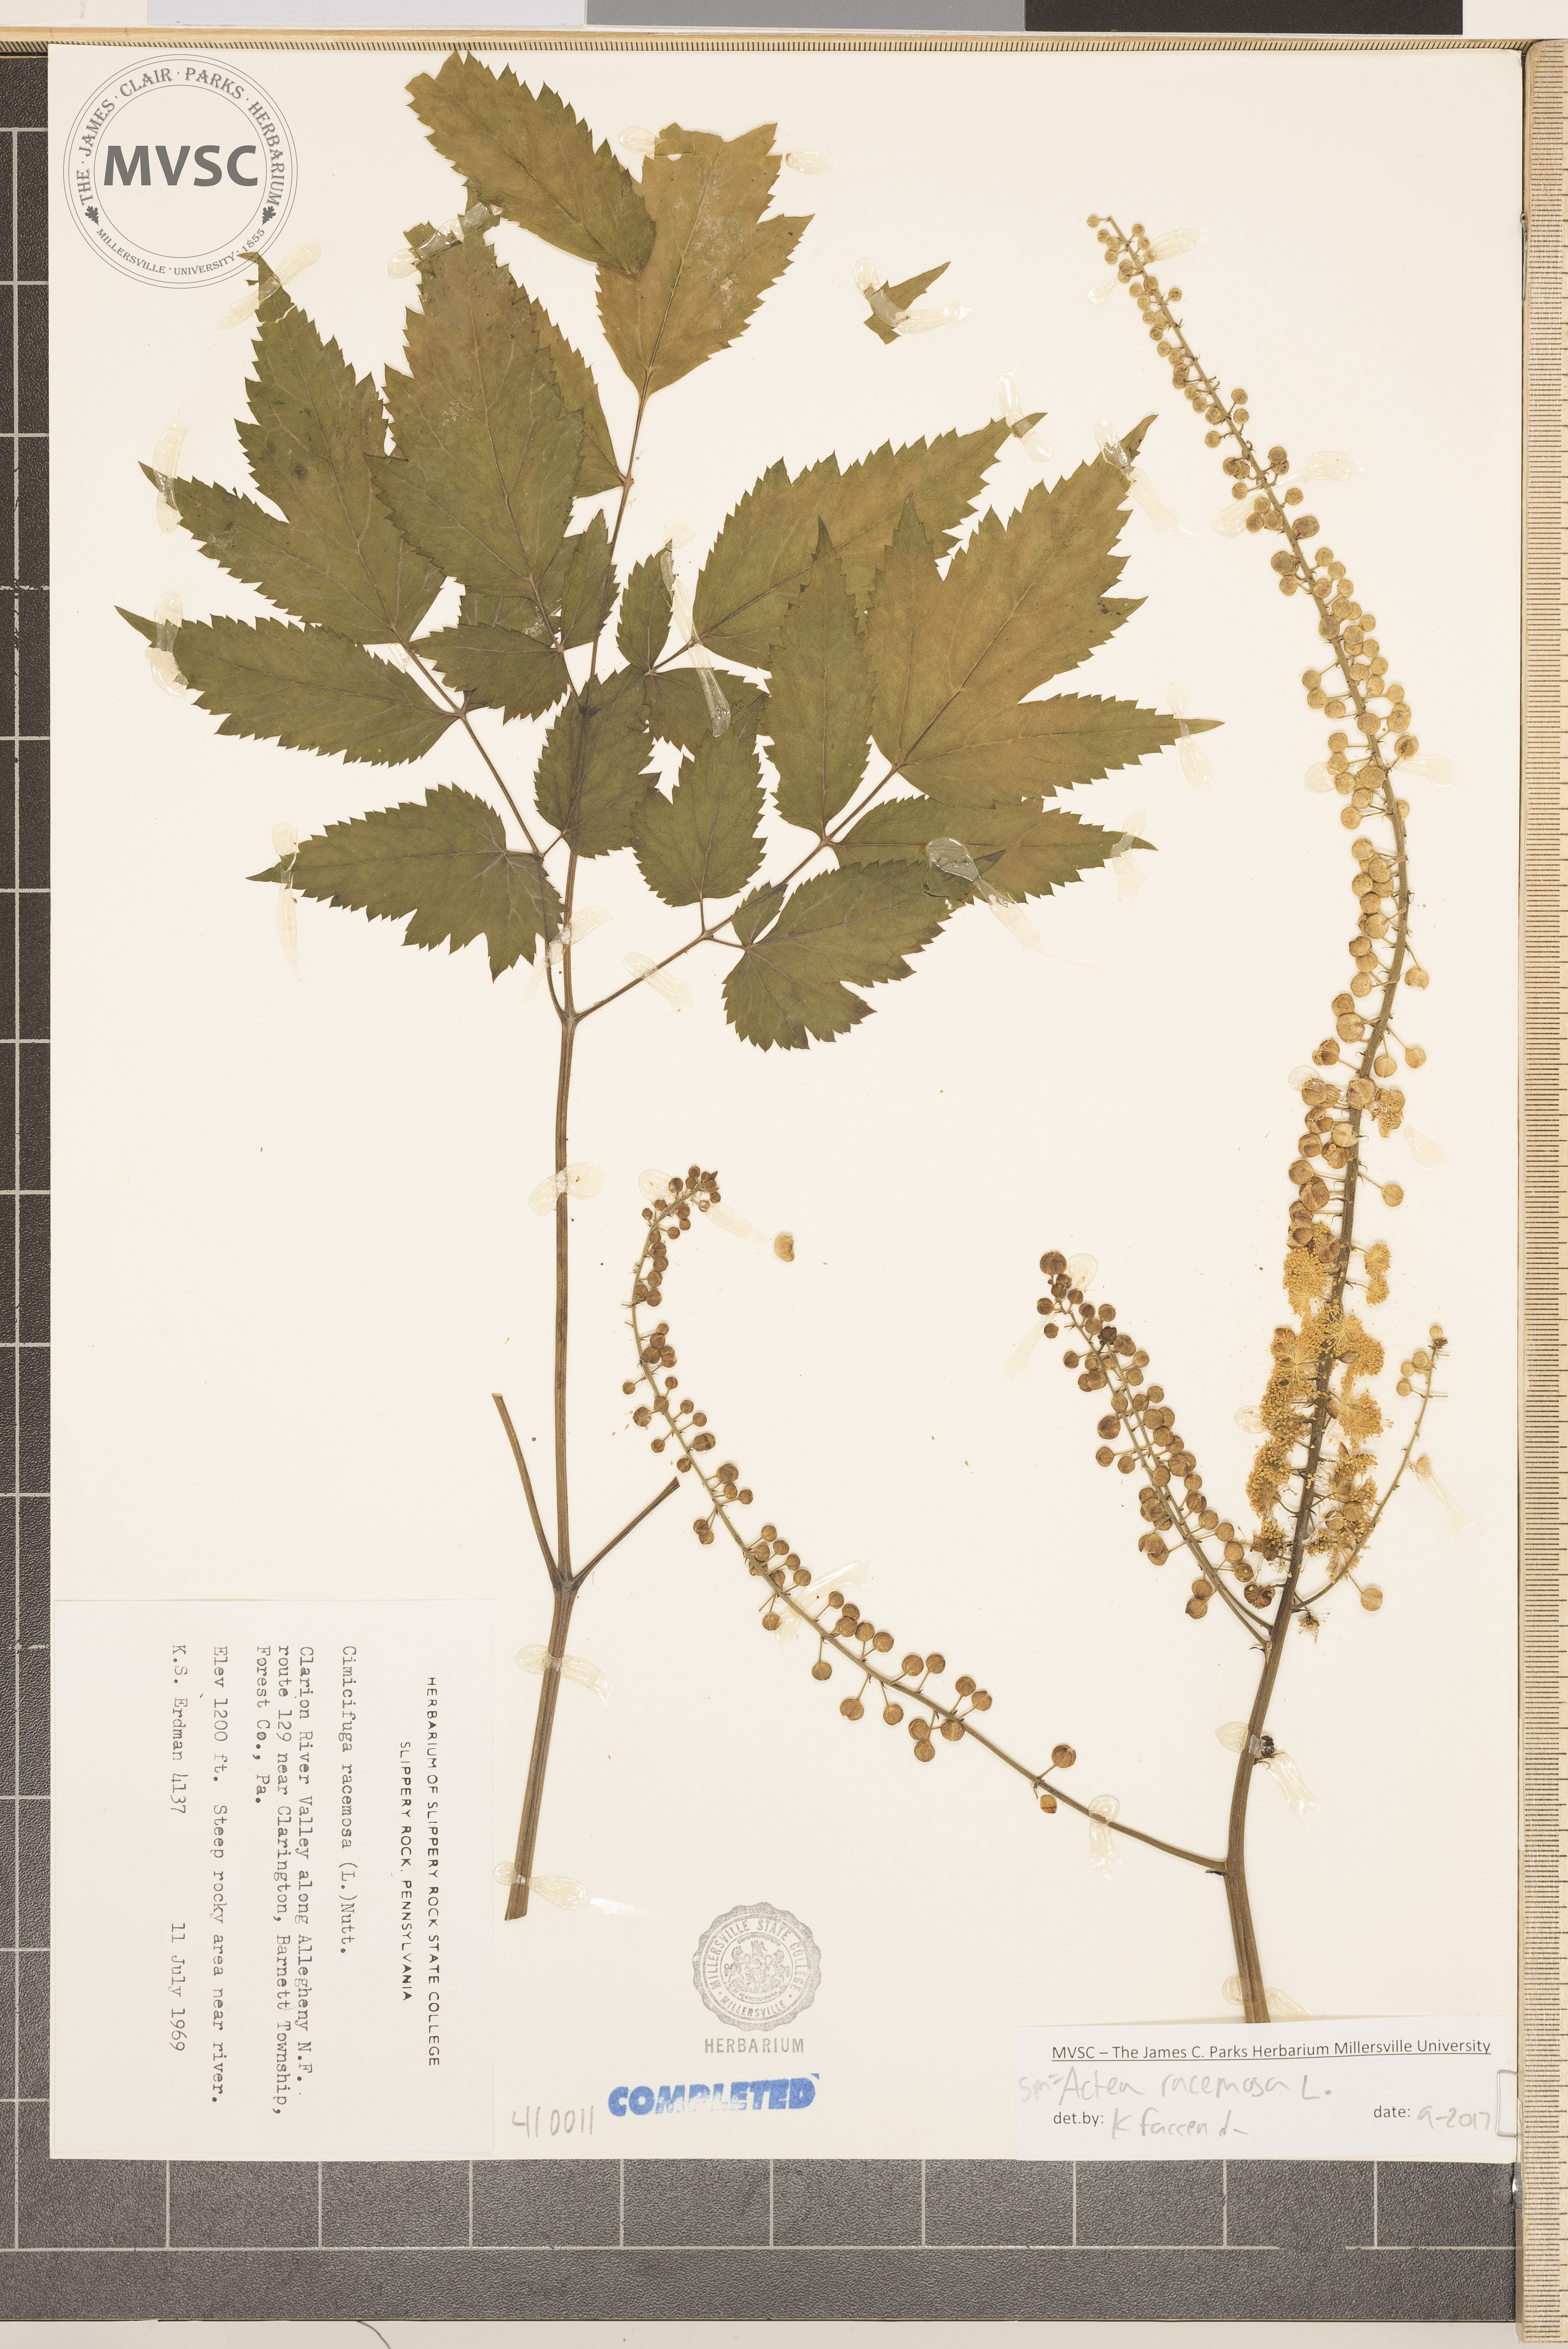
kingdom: Plantae
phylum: Tracheophyta
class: Magnoliopsida
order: Ranunculales
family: Ranunculaceae
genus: Actaea
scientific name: Actaea racemosa
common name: Black cohosh
